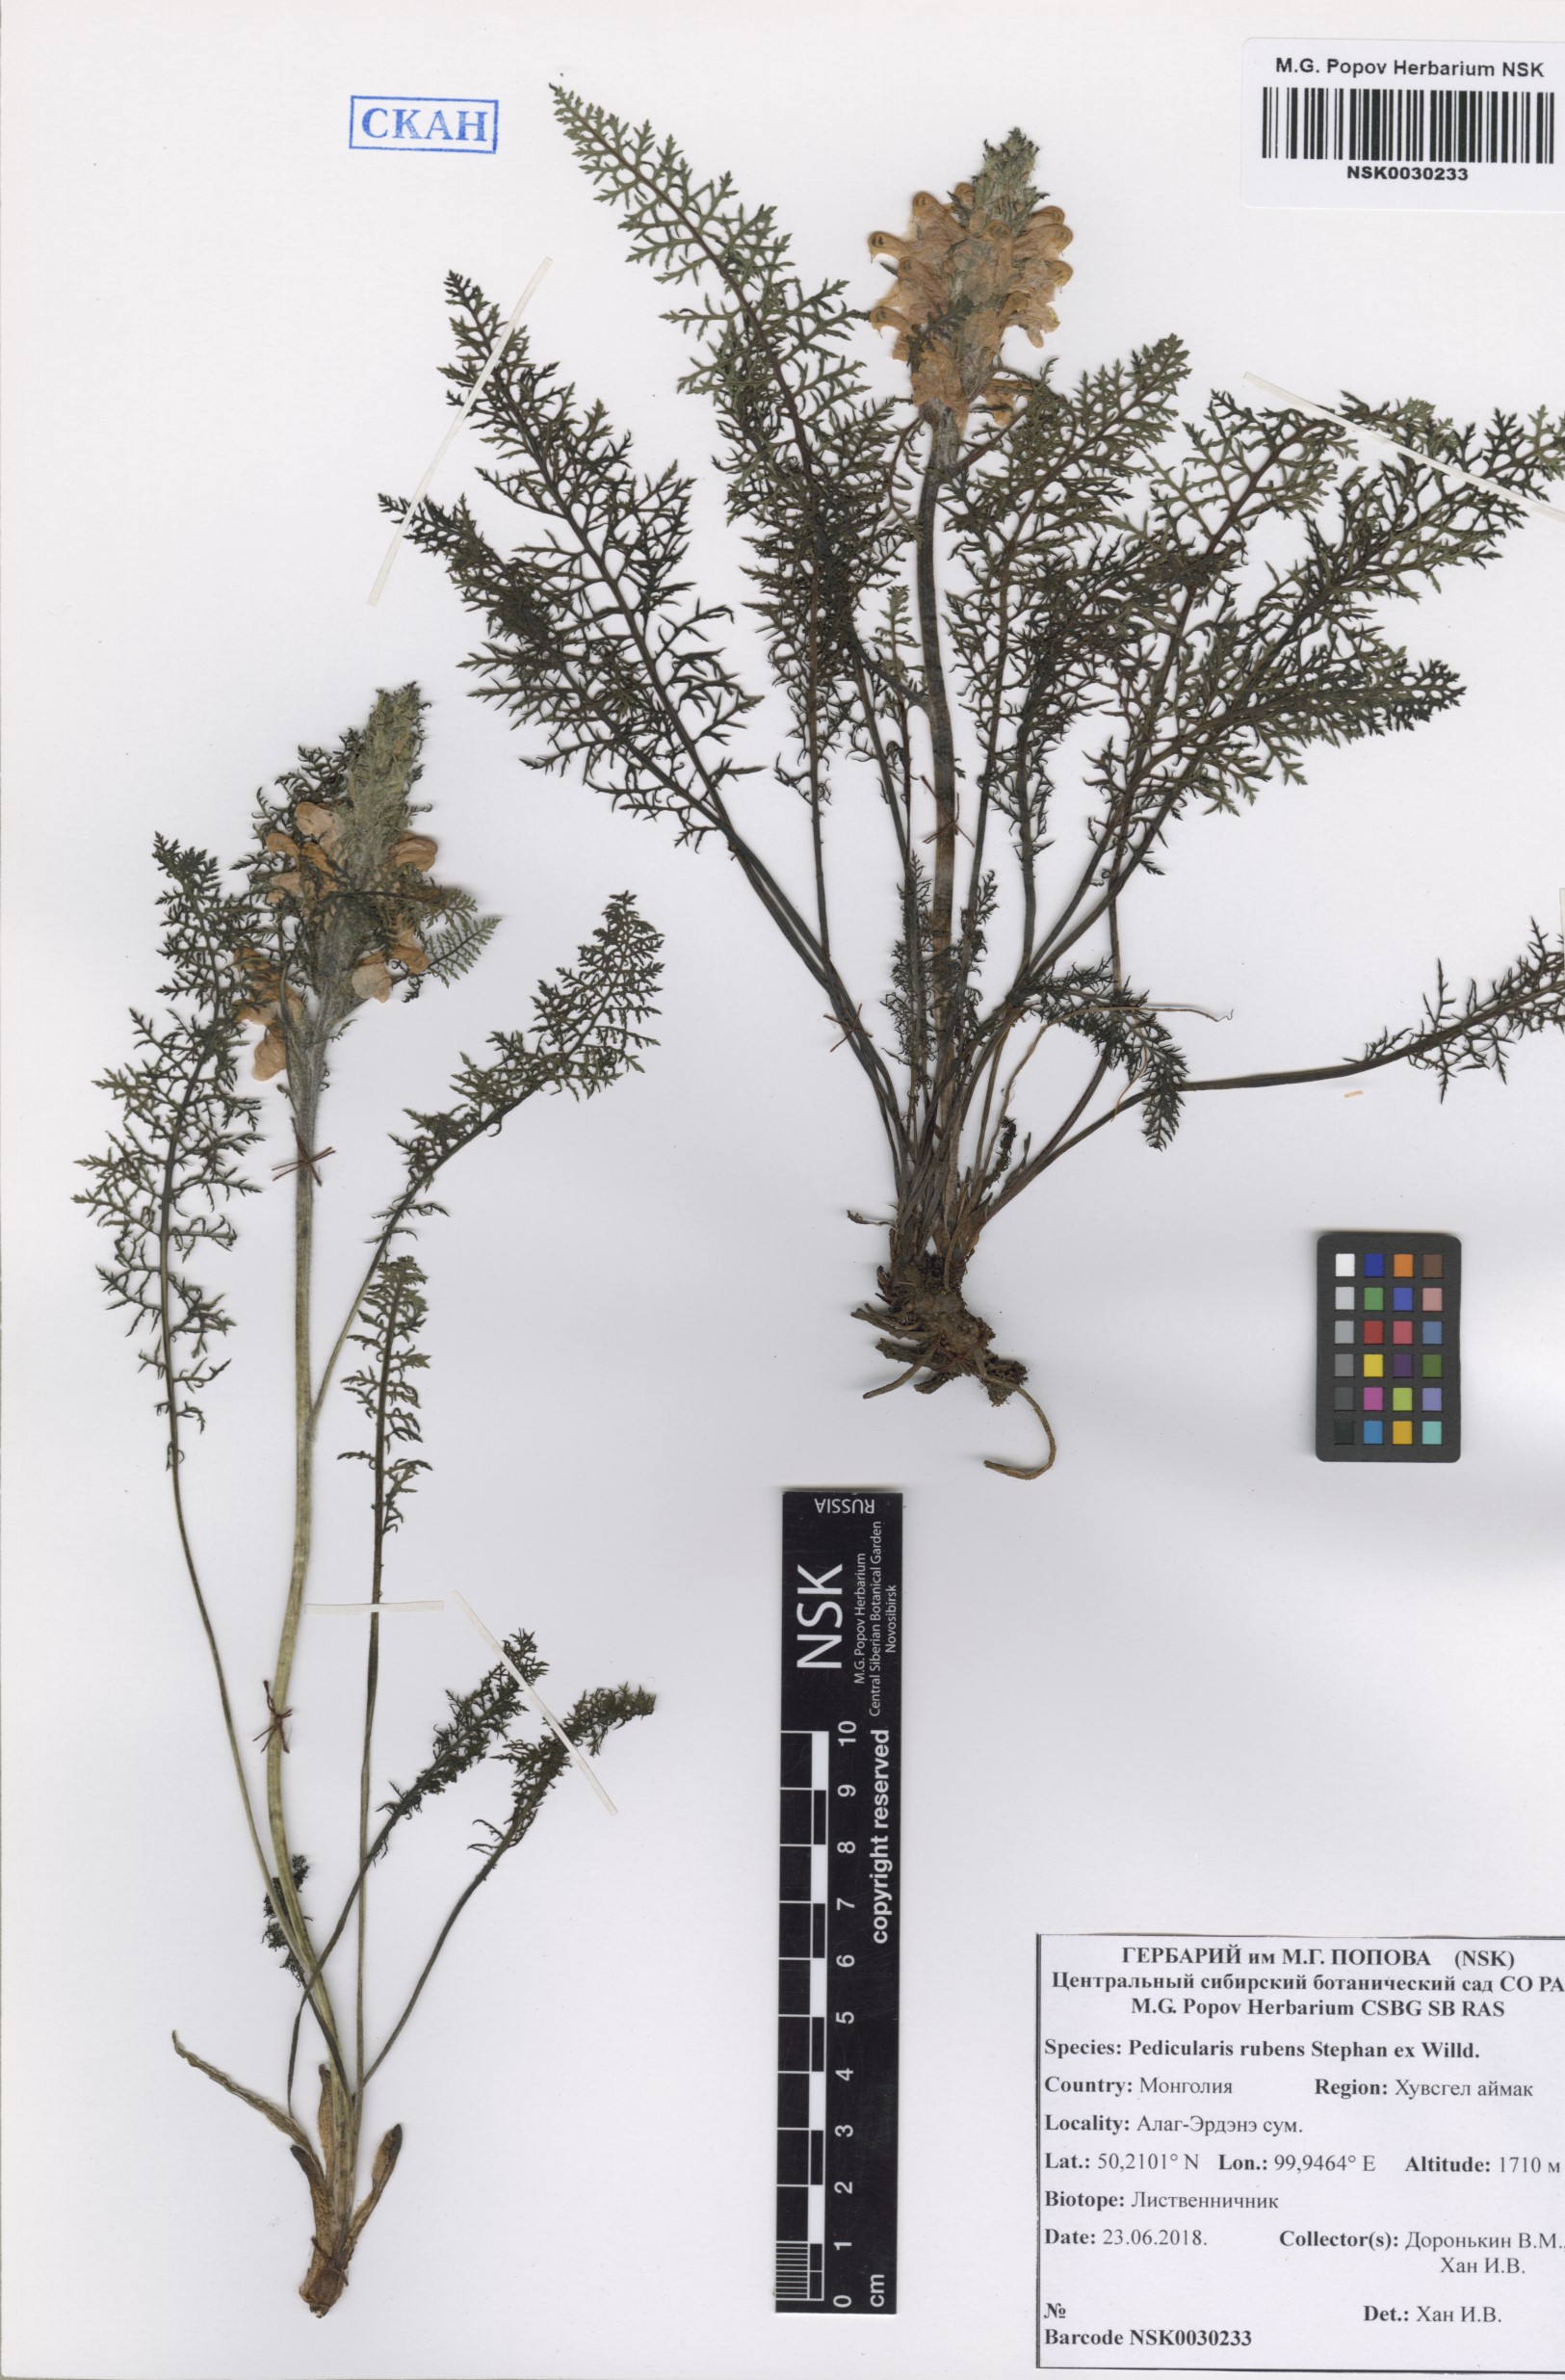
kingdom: Plantae
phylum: Tracheophyta
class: Magnoliopsida
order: Lamiales
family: Orobanchaceae
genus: Pedicularis
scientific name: Pedicularis rubens
